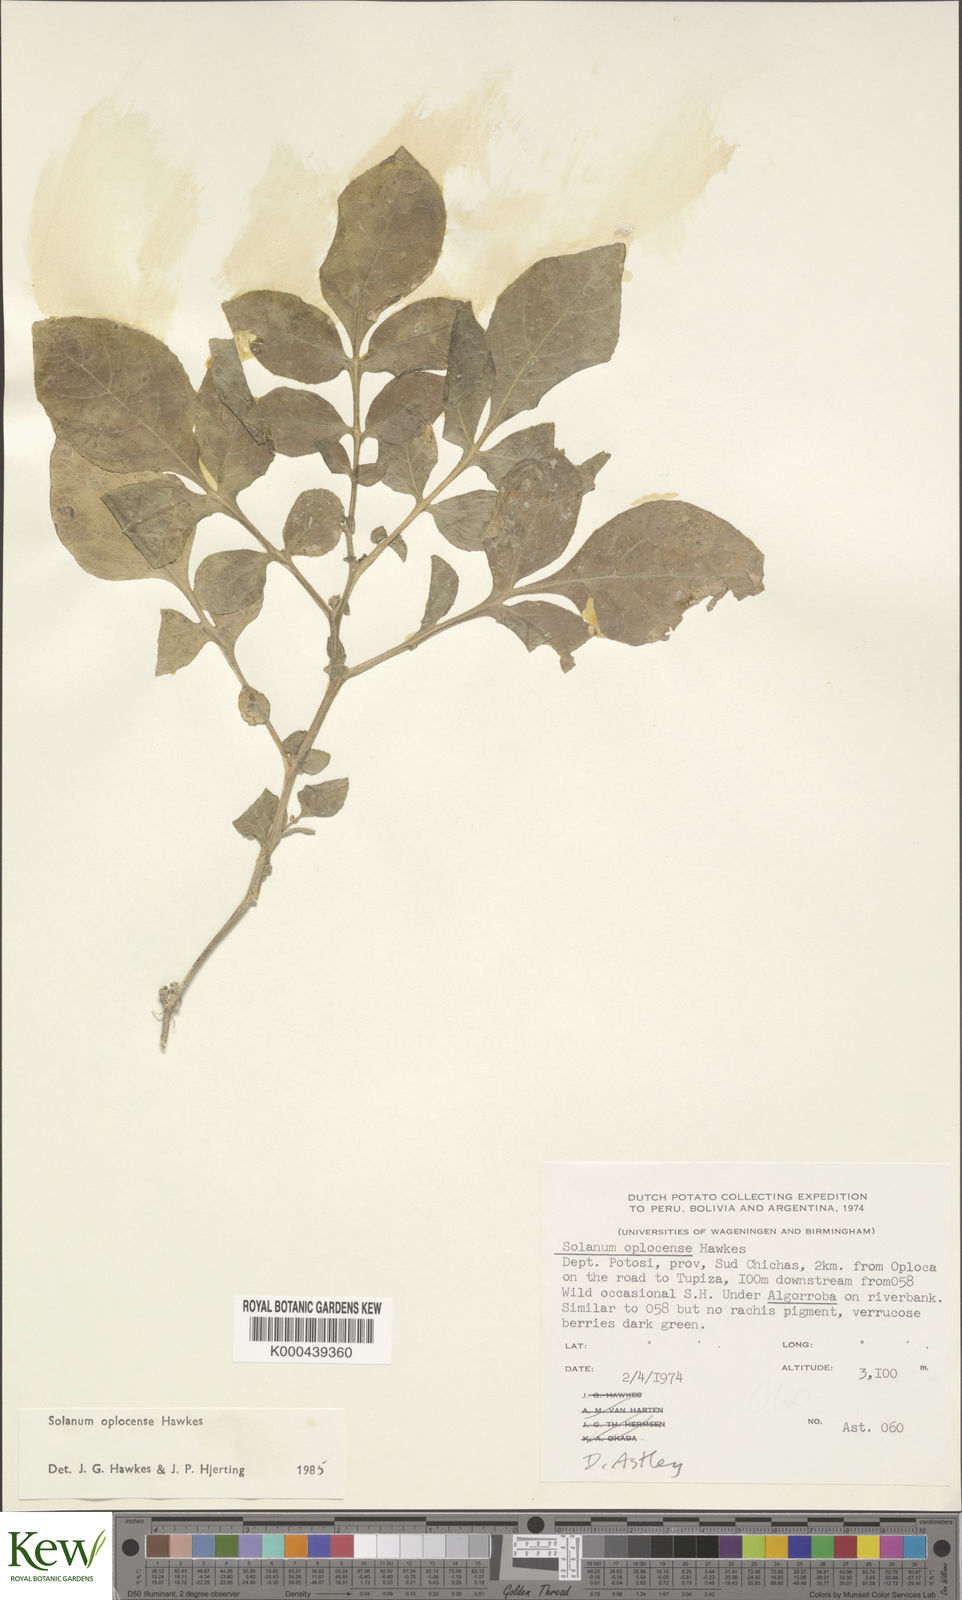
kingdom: Plantae
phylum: Tracheophyta
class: Magnoliopsida
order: Solanales
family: Solanaceae
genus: Solanum
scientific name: Solanum brevicaule
